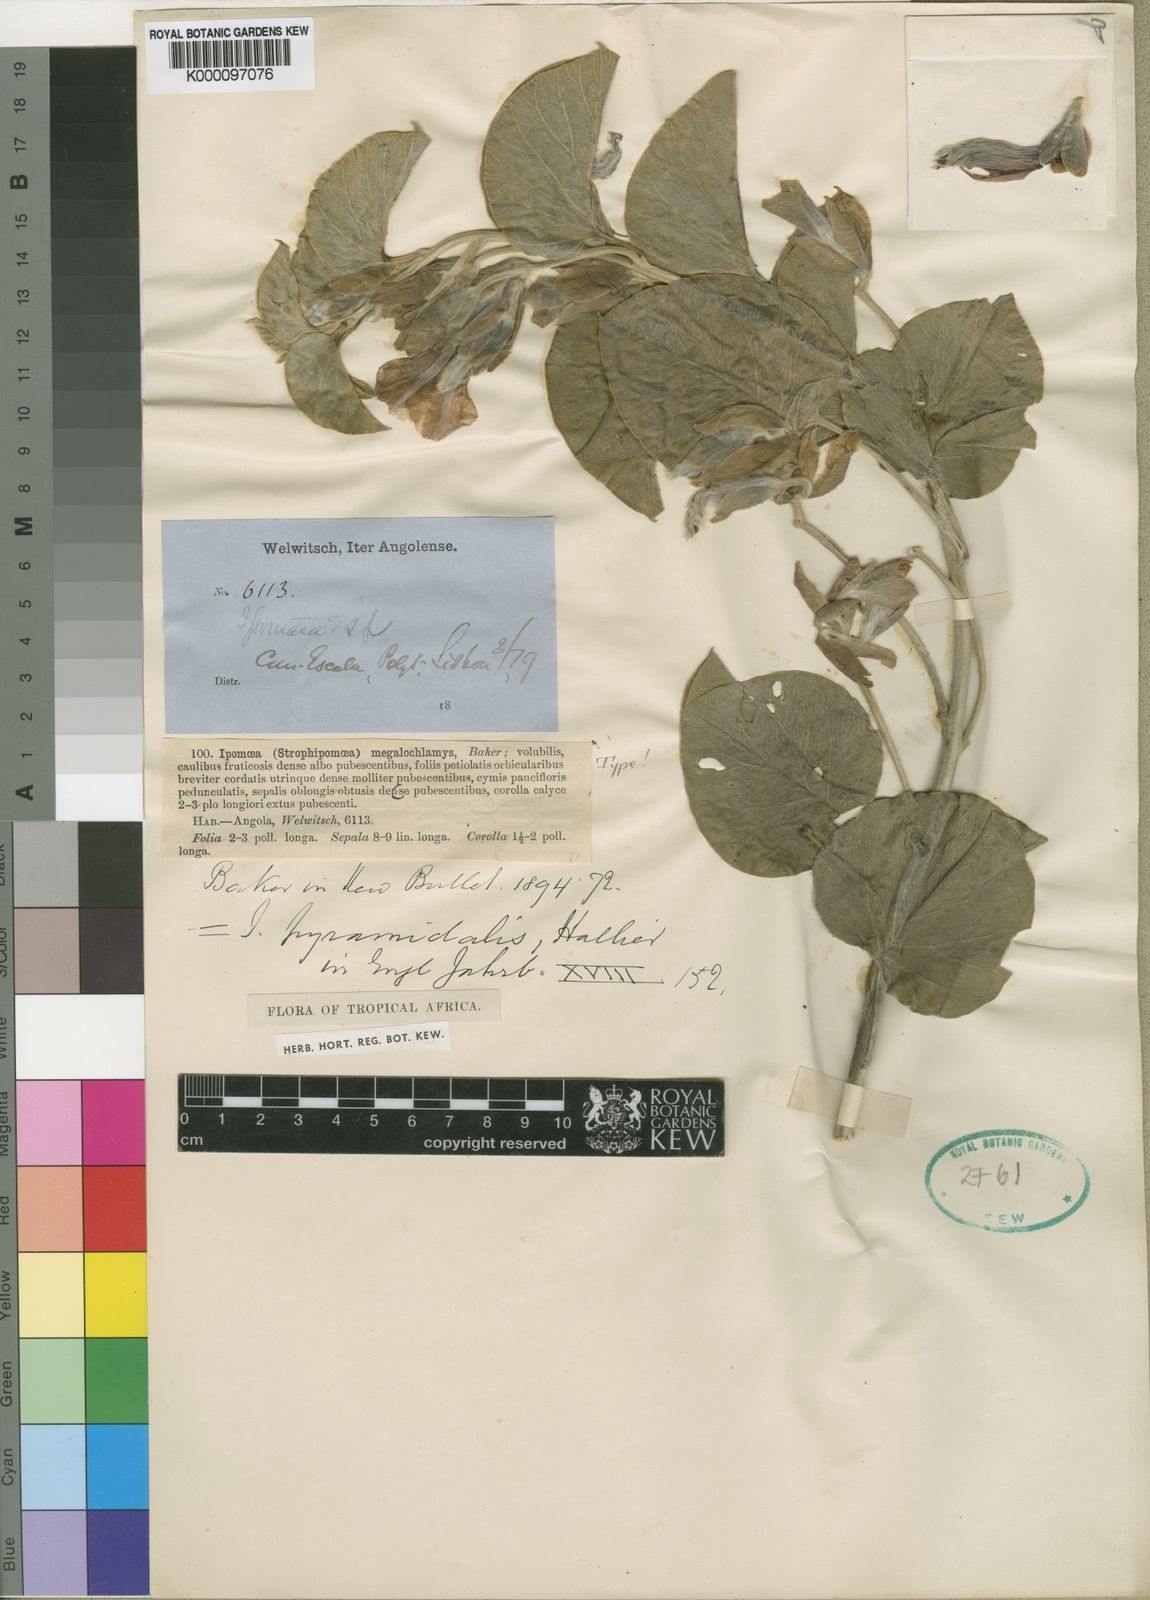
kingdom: Plantae
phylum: Tracheophyta
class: Magnoliopsida
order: Solanales
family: Convolvulaceae
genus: Ipomoea
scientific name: Ipomoea pyramidalis
